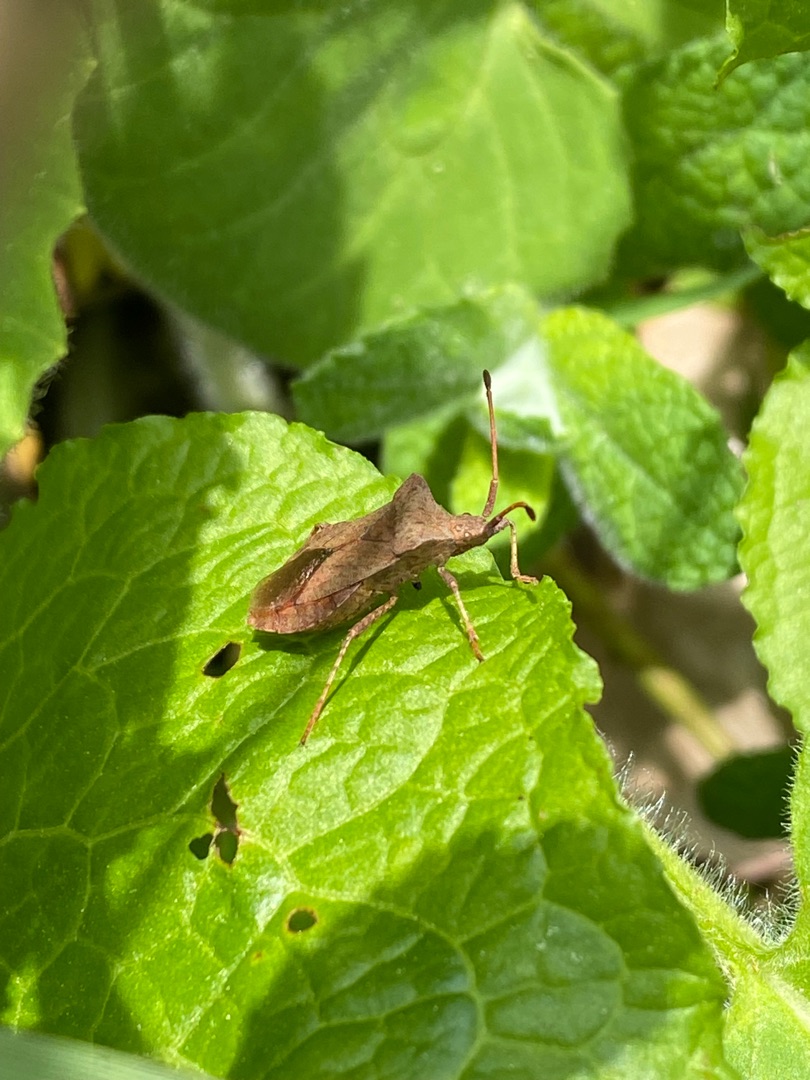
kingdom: Animalia
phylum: Arthropoda
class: Insecta
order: Hemiptera
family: Coreidae
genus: Coreus
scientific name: Coreus marginatus
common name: Skræppetæge
